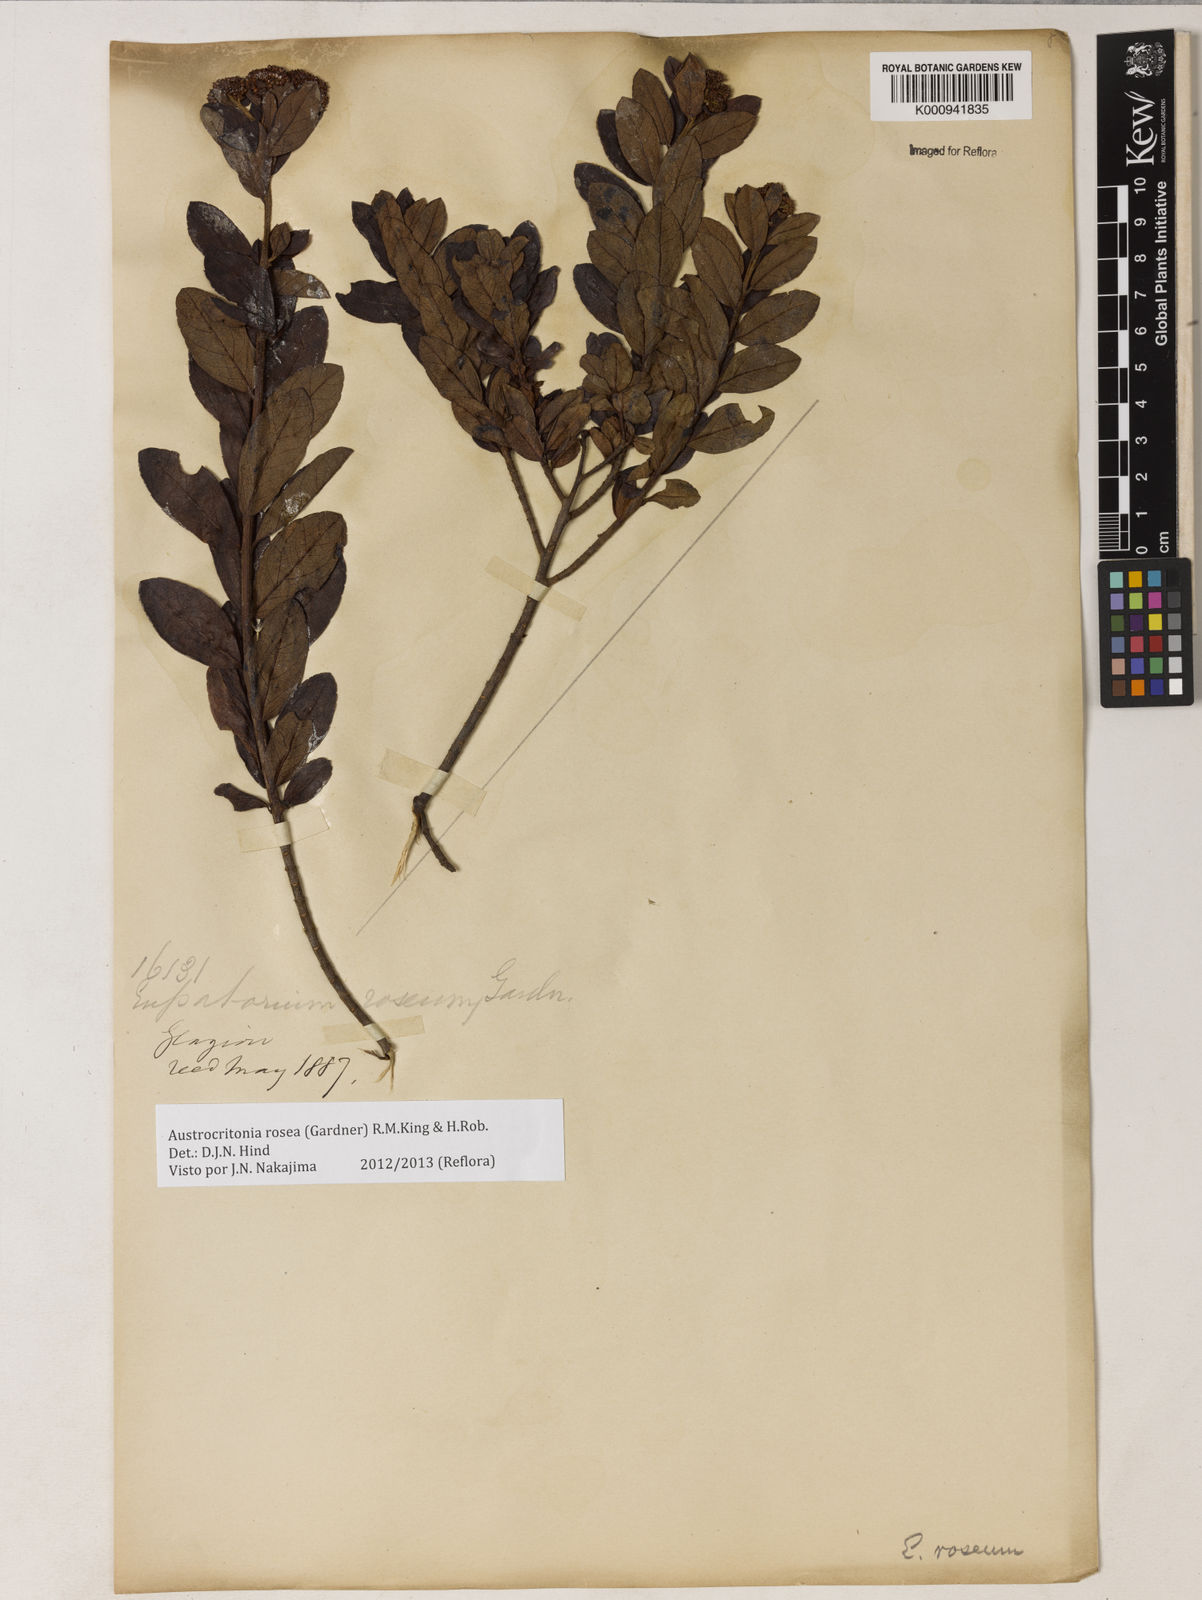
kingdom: Plantae
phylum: Tracheophyta
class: Magnoliopsida
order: Asterales
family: Asteraceae
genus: Austrocritonia
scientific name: Austrocritonia rosea
